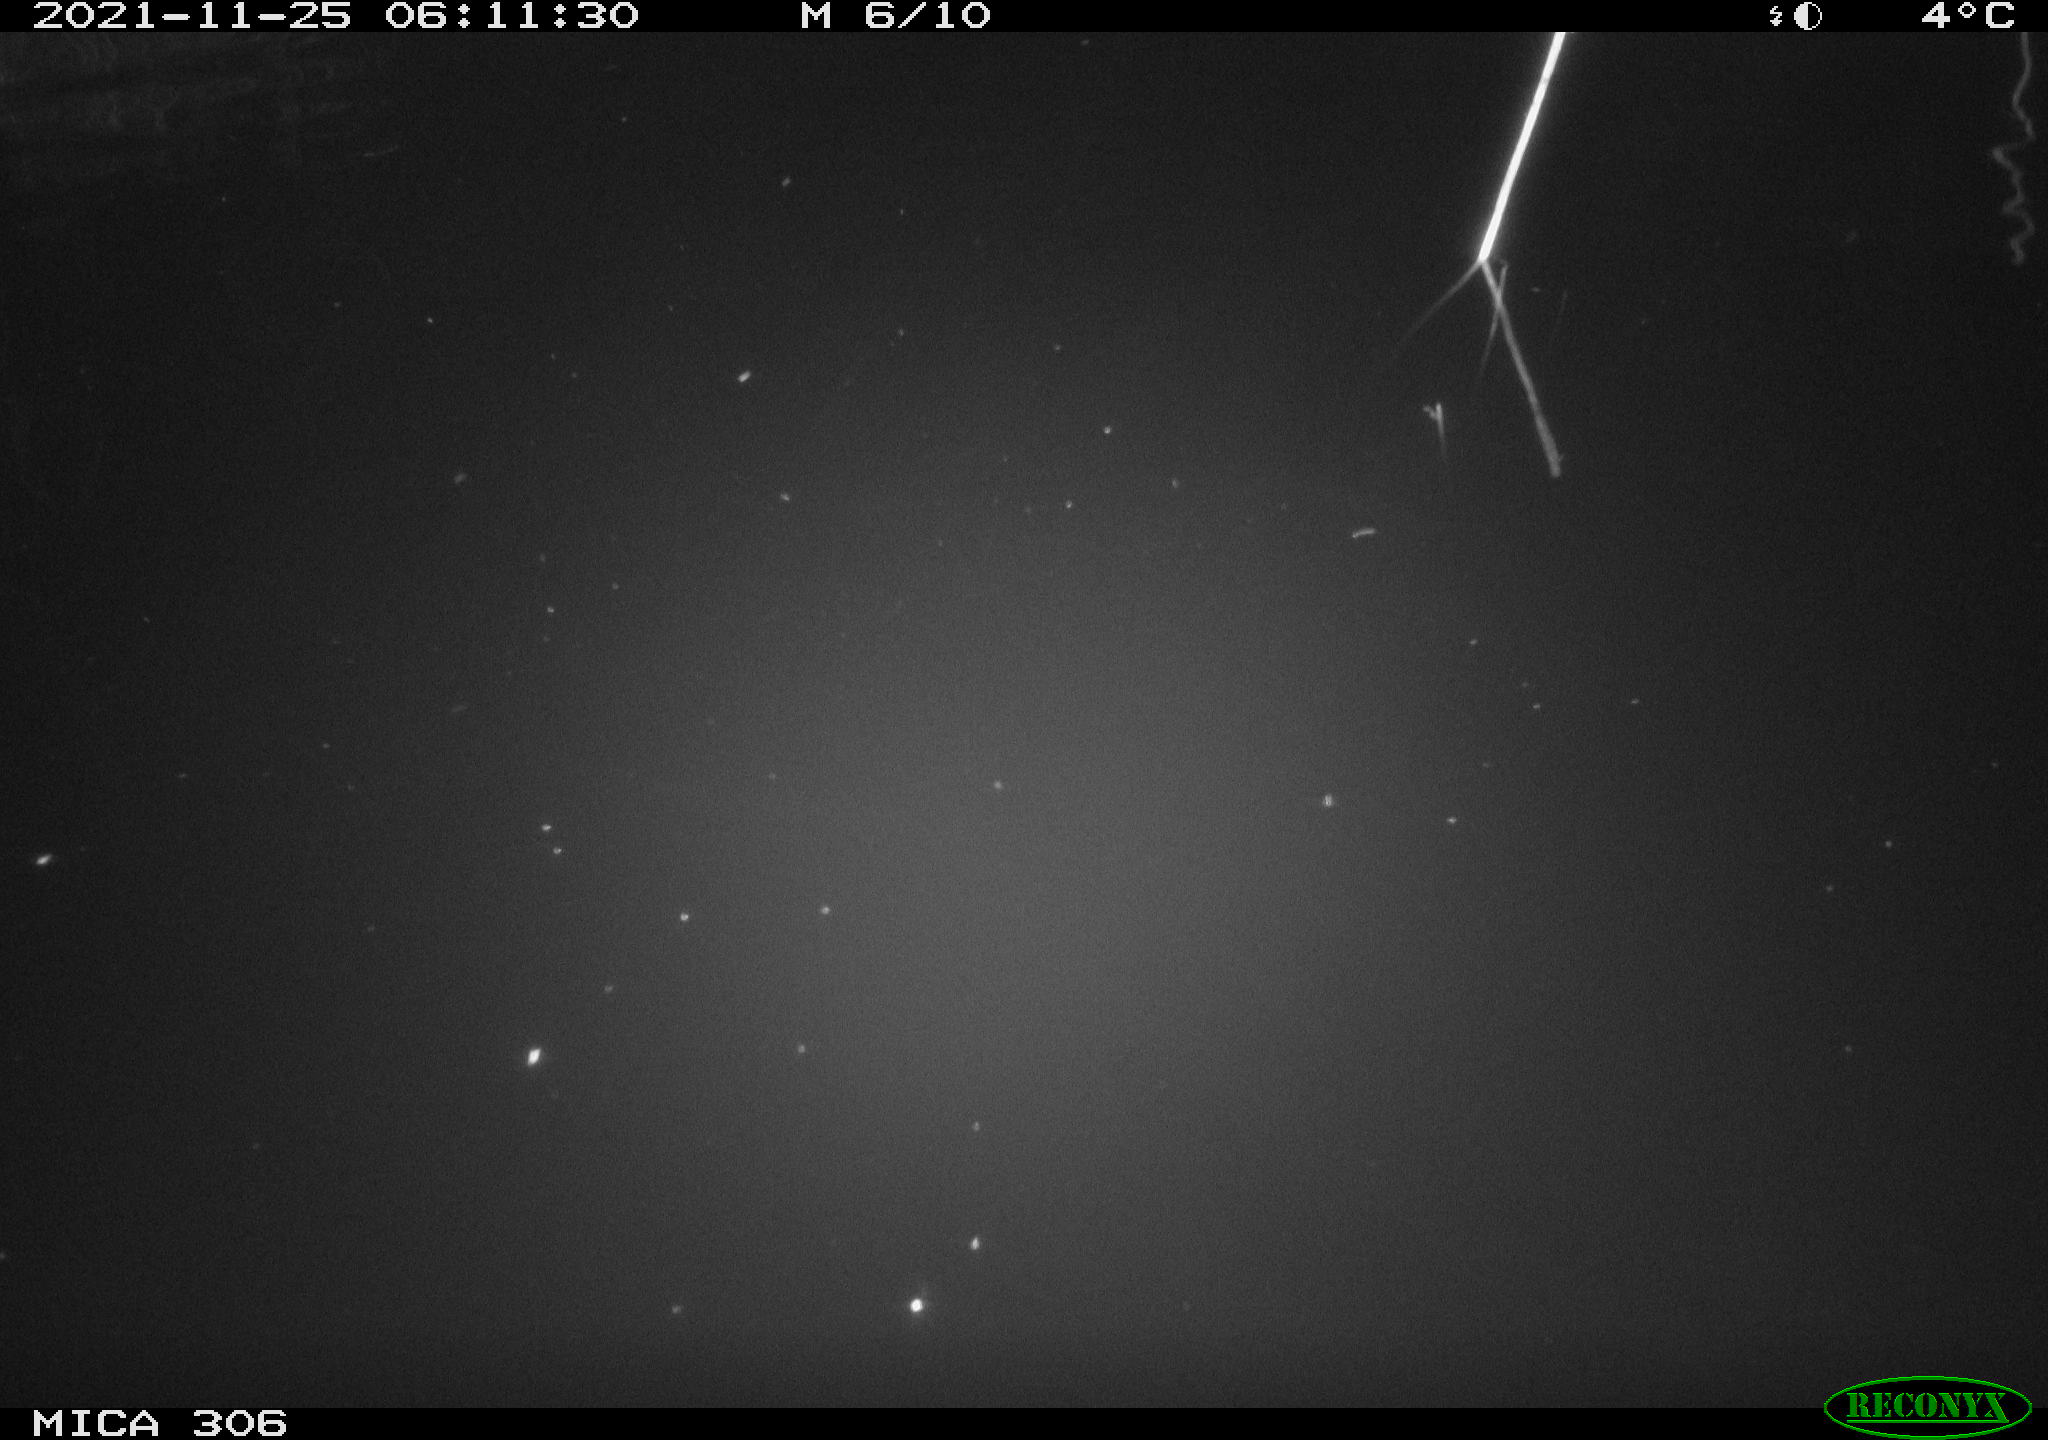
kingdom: Animalia
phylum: Chordata
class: Mammalia
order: Rodentia
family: Muridae
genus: Rattus
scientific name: Rattus norvegicus
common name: Brown rat
